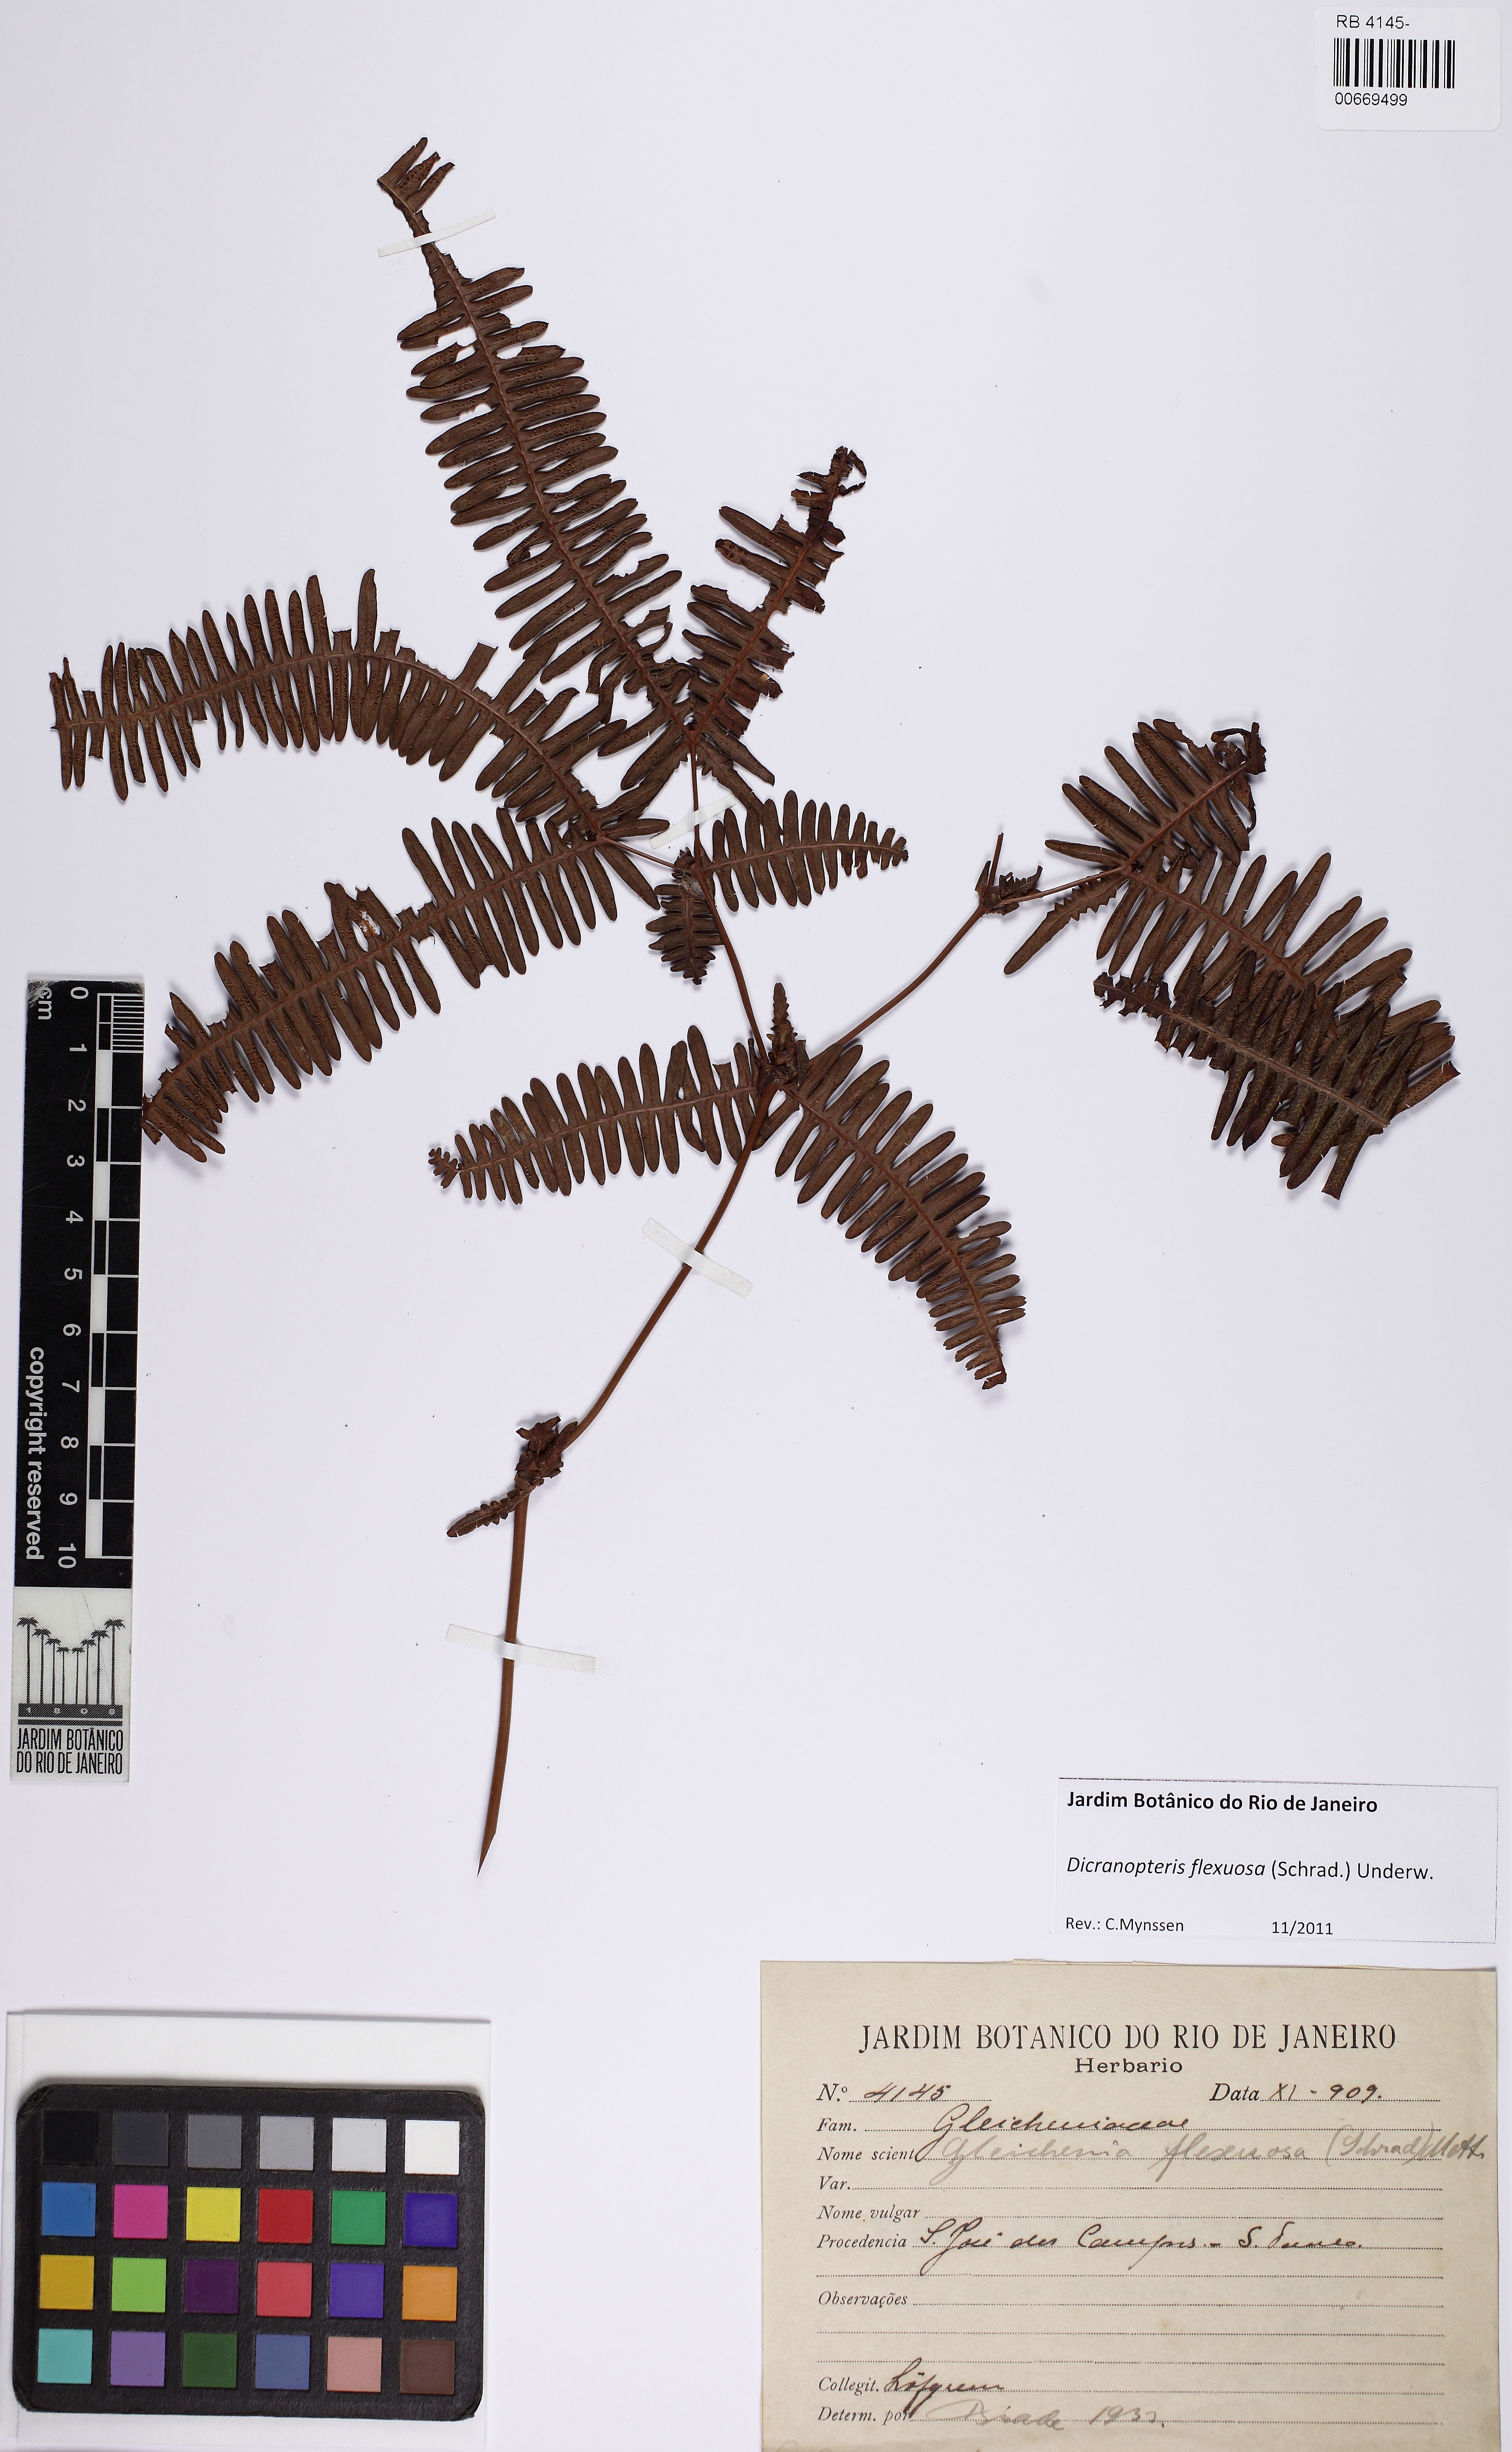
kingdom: Plantae
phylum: Tracheophyta
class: Polypodiopsida
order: Gleicheniales
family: Gleicheniaceae
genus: Dicranopteris
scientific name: Dicranopteris flexuosa
